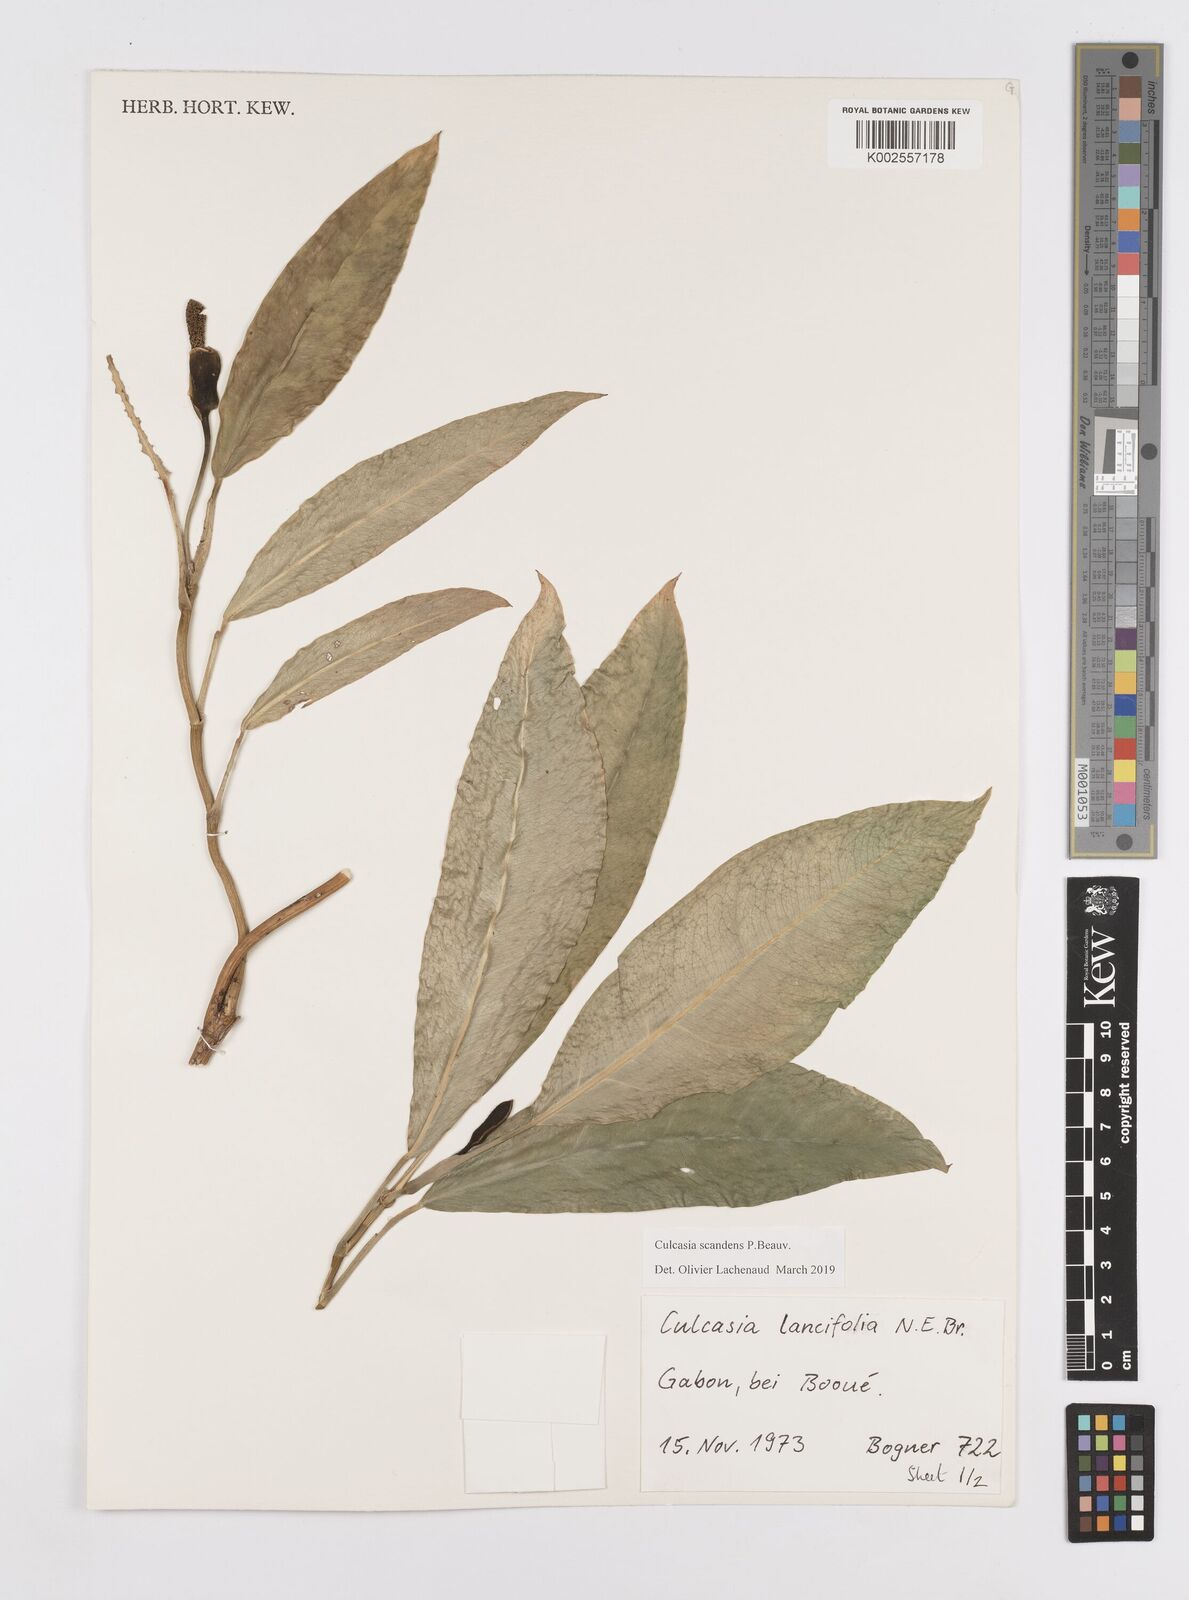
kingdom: Plantae
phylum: Tracheophyta
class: Liliopsida
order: Alismatales
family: Araceae
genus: Culcasia
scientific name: Culcasia scandens
